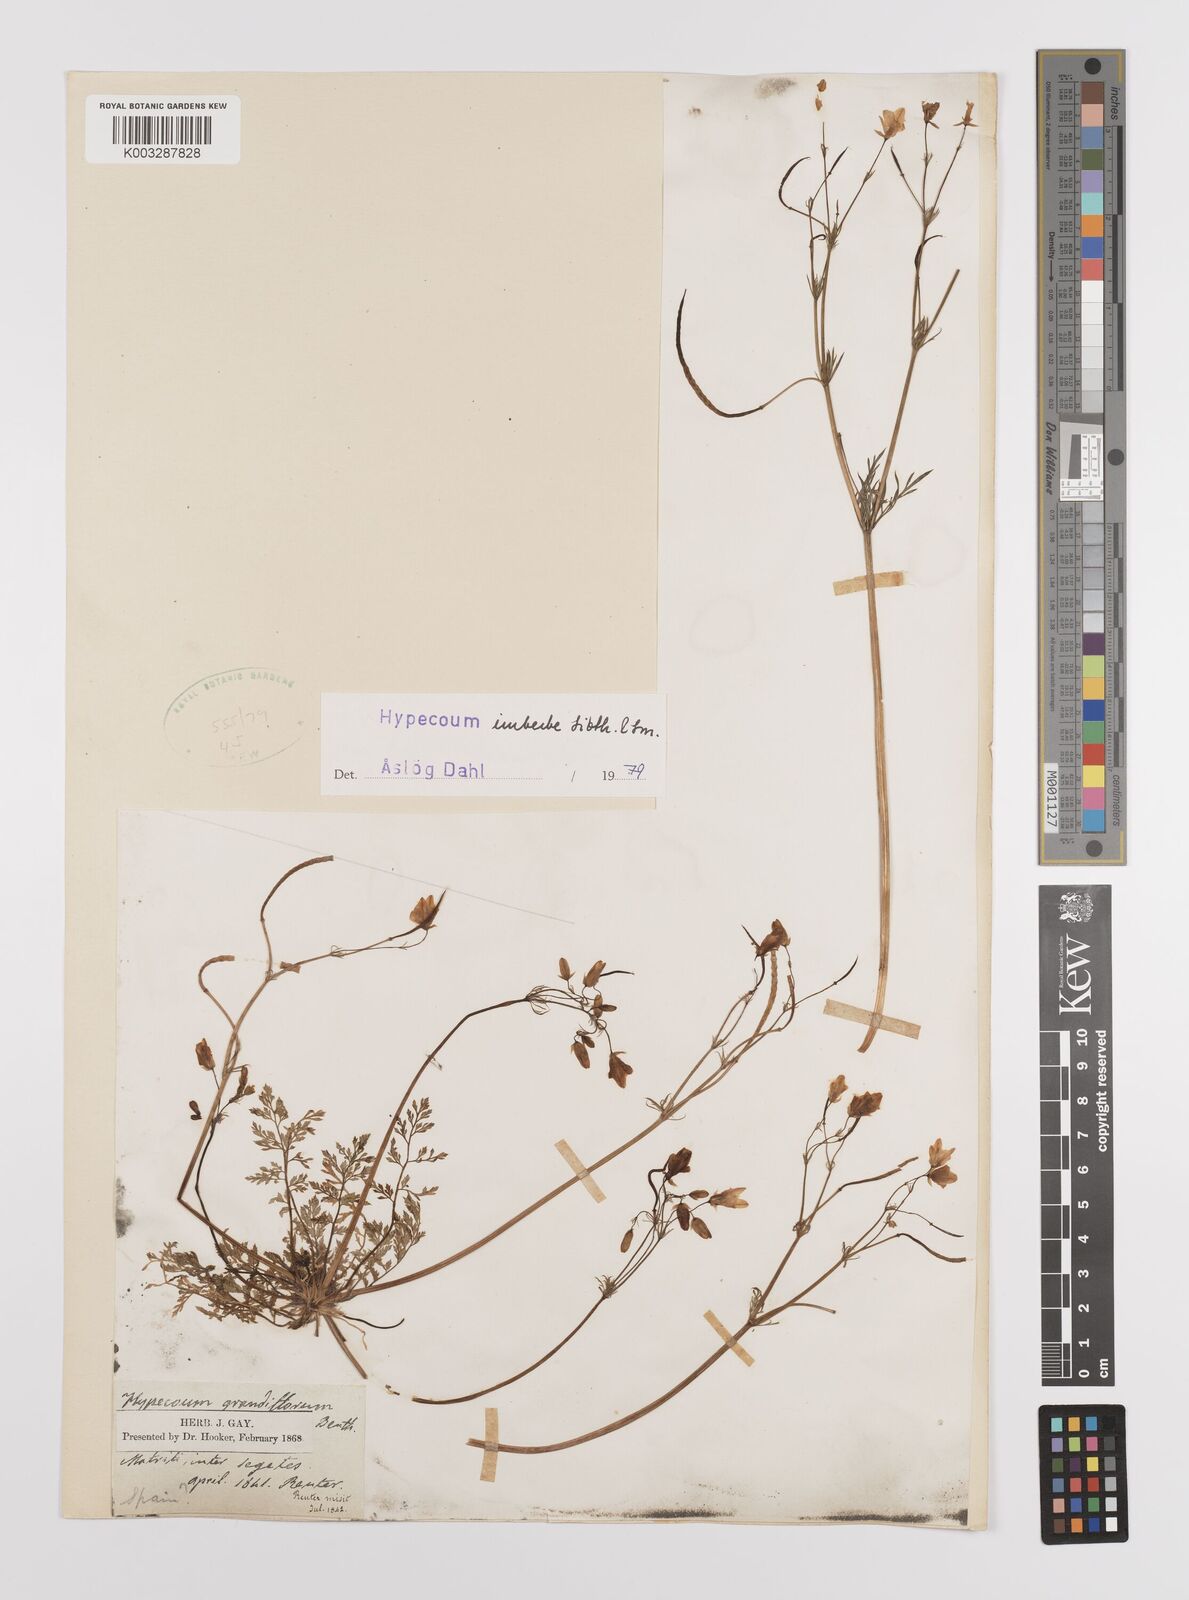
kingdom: Plantae
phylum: Tracheophyta
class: Magnoliopsida
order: Ranunculales
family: Papaveraceae
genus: Hypecoum
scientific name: Hypecoum imberbe
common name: Sicklefruit hypecoum
